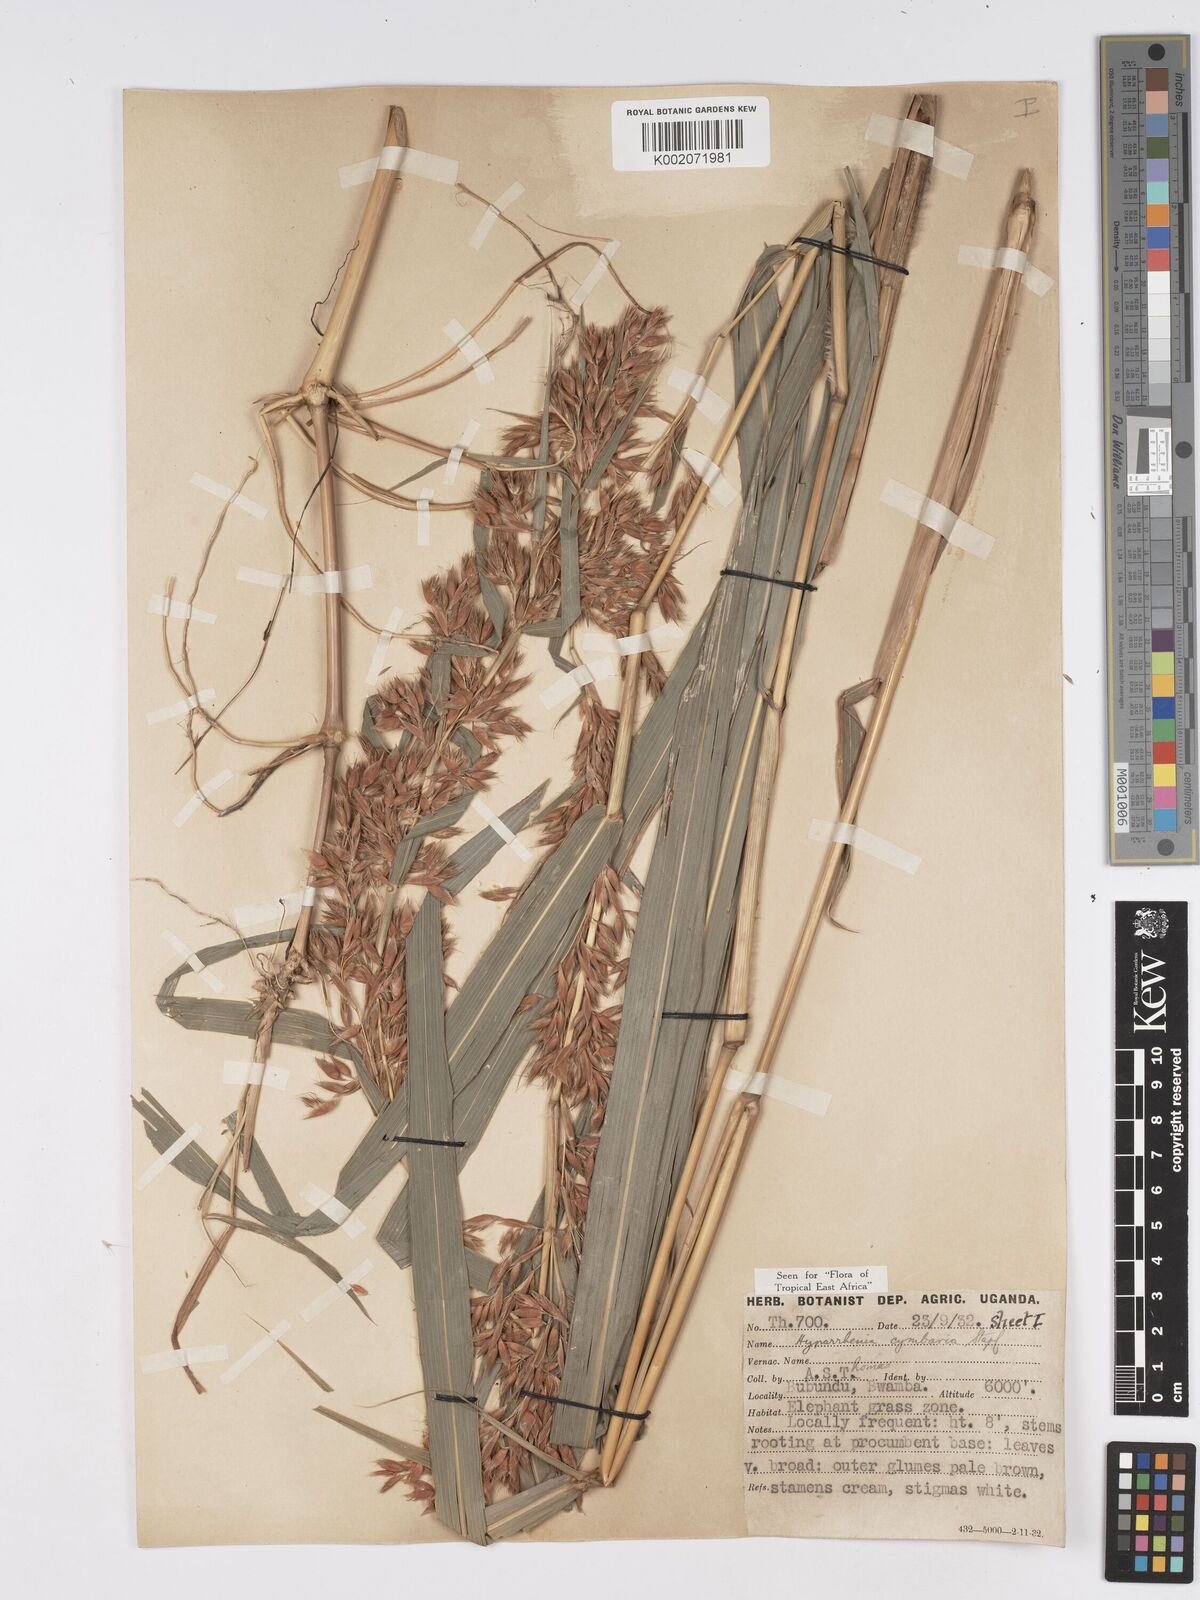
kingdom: Plantae
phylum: Tracheophyta
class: Liliopsida
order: Poales
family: Poaceae
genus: Hyparrhenia
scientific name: Hyparrhenia cymbaria
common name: Boat thatching grass
